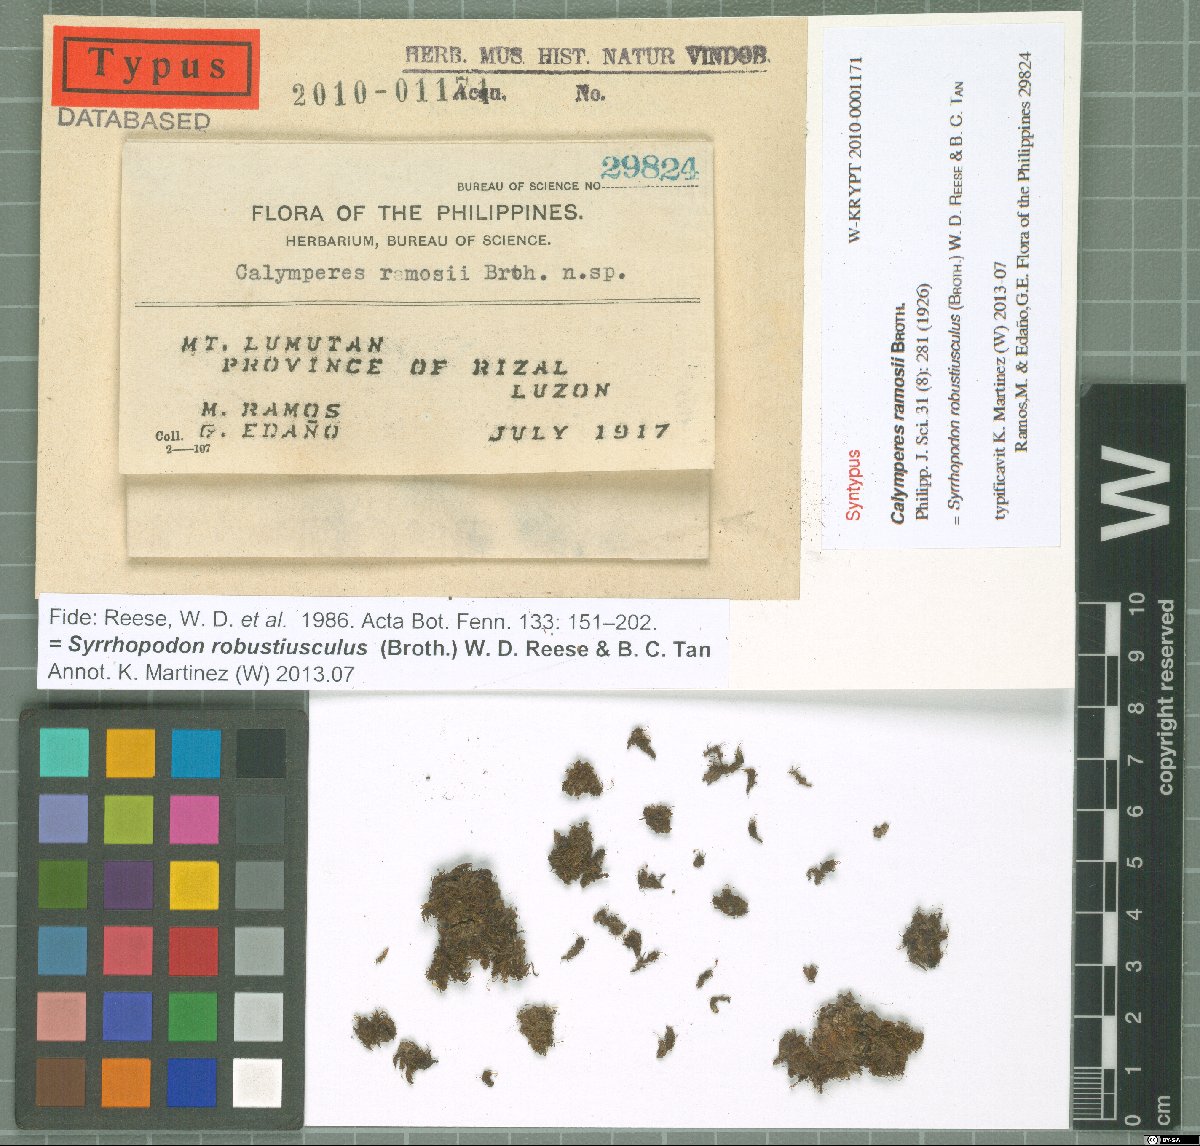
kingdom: Plantae
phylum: Bryophyta
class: Bryopsida
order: Dicranales
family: Calymperaceae
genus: Chameleion
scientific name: Chameleion peguense
